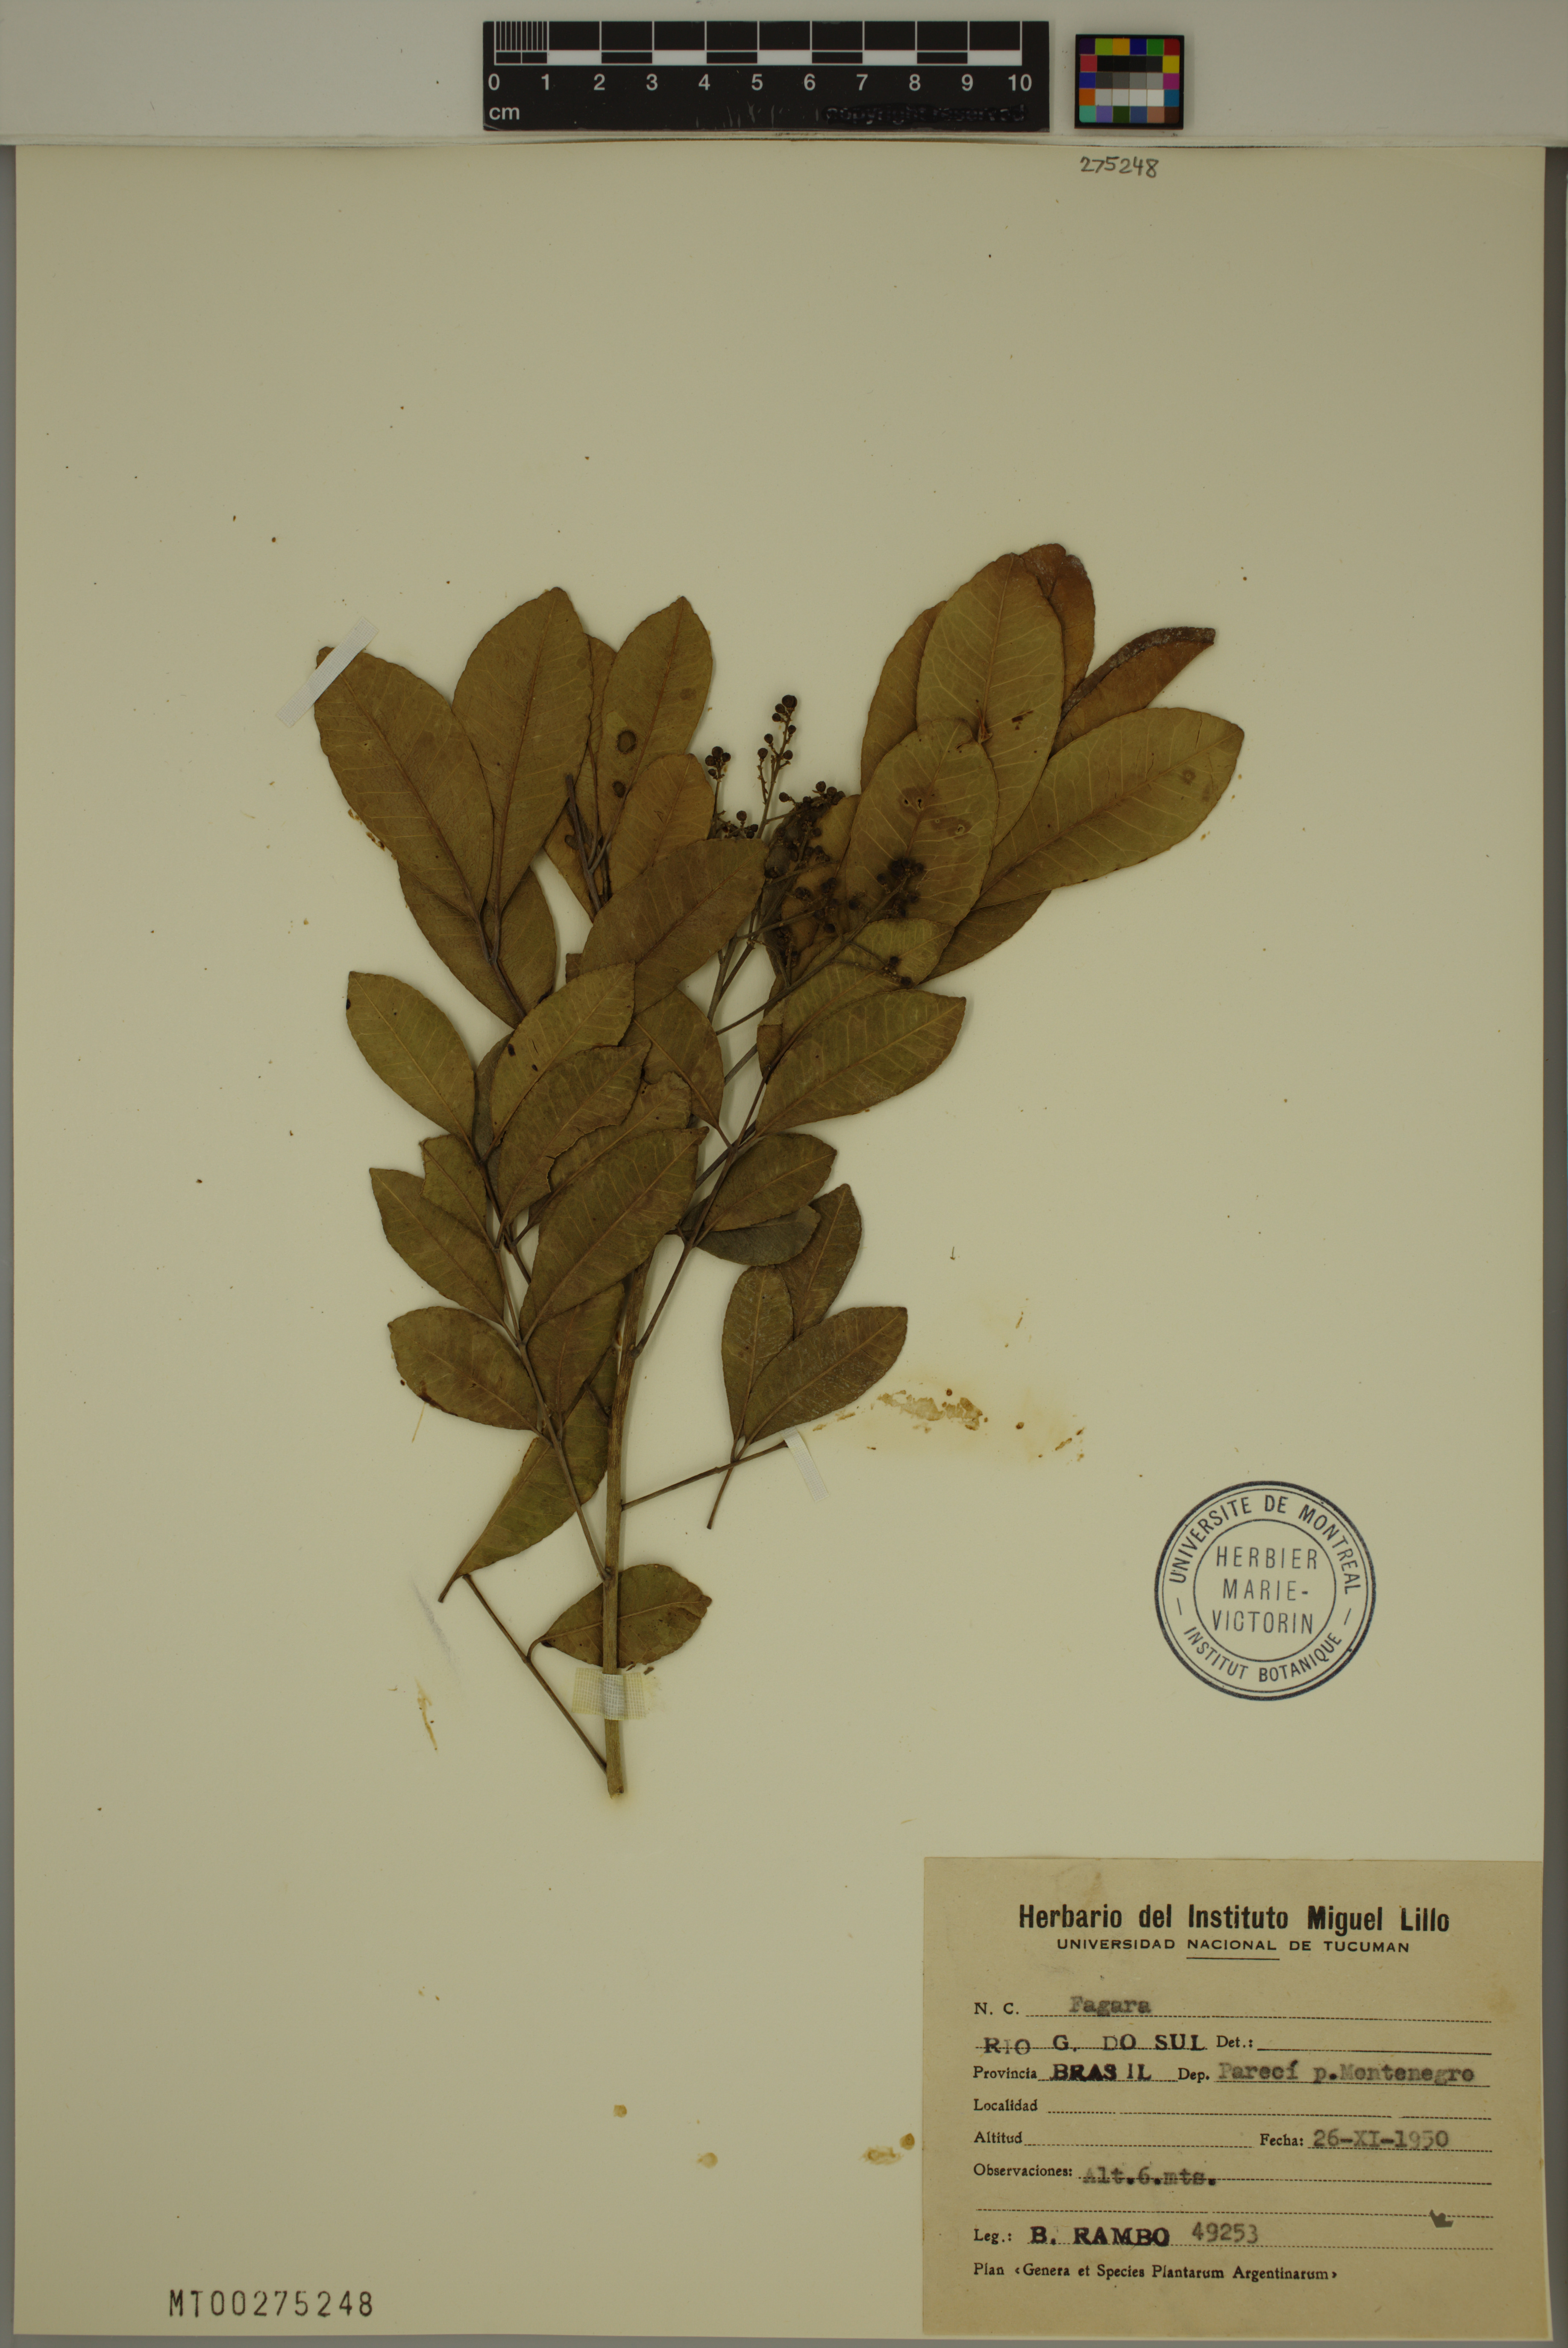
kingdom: Plantae
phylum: Tracheophyta
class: Magnoliopsida
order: Sapindales
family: Rutaceae
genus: Zanthoxylum
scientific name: Zanthoxylum
